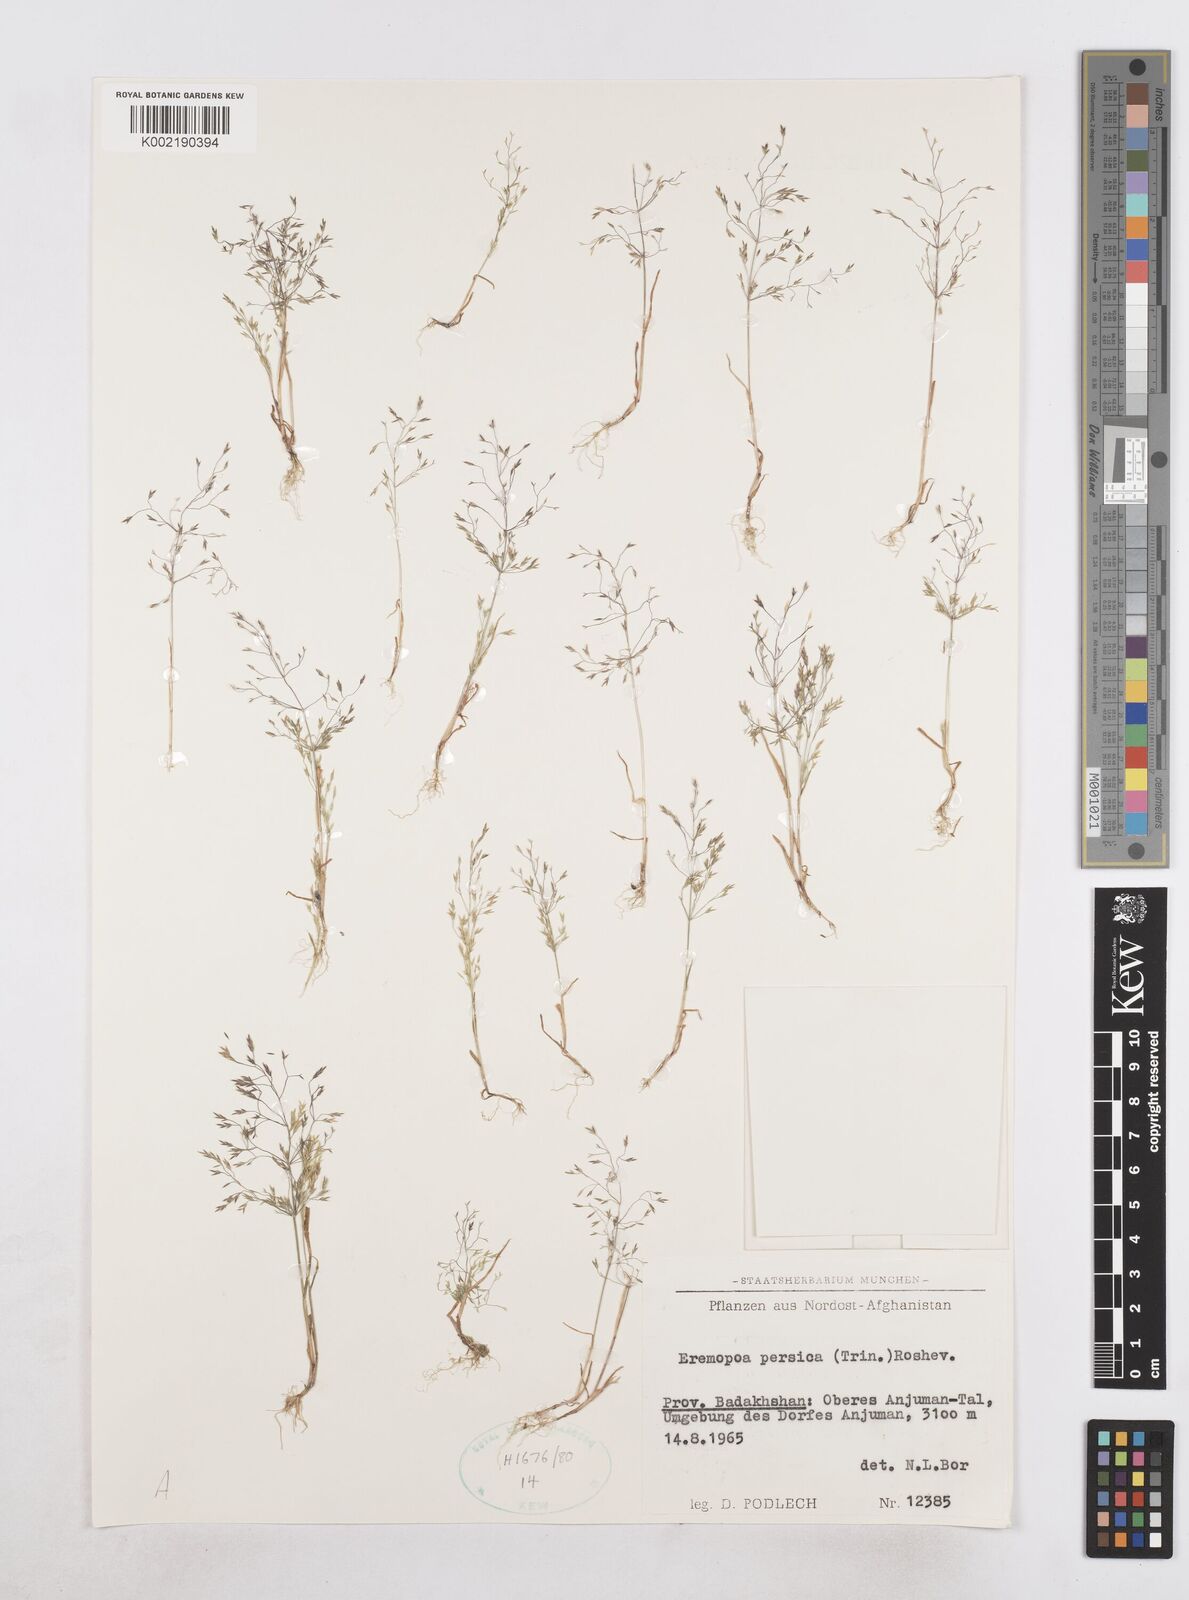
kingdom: Plantae
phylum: Tracheophyta
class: Liliopsida
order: Poales
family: Poaceae
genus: Poa
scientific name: Poa persica
